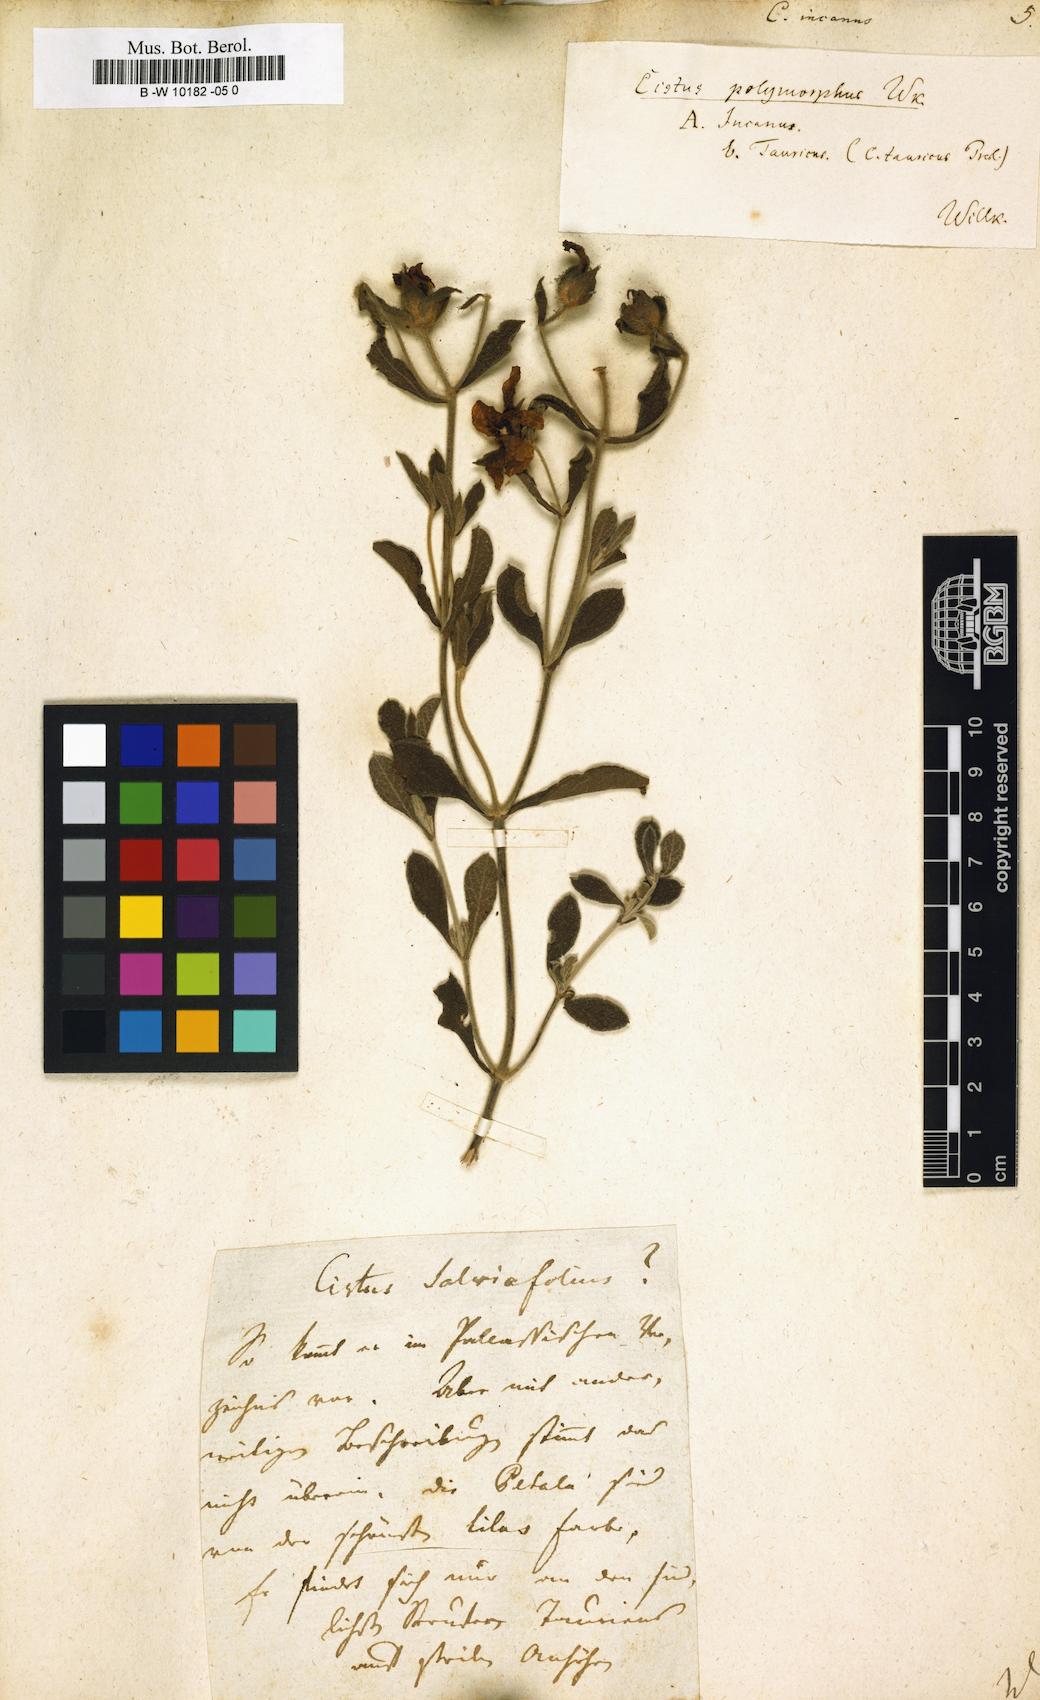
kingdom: Plantae
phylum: Tracheophyta
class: Magnoliopsida
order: Malvales
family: Cistaceae
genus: Cistus
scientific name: Cistus incanus
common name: Hairy rockrose
